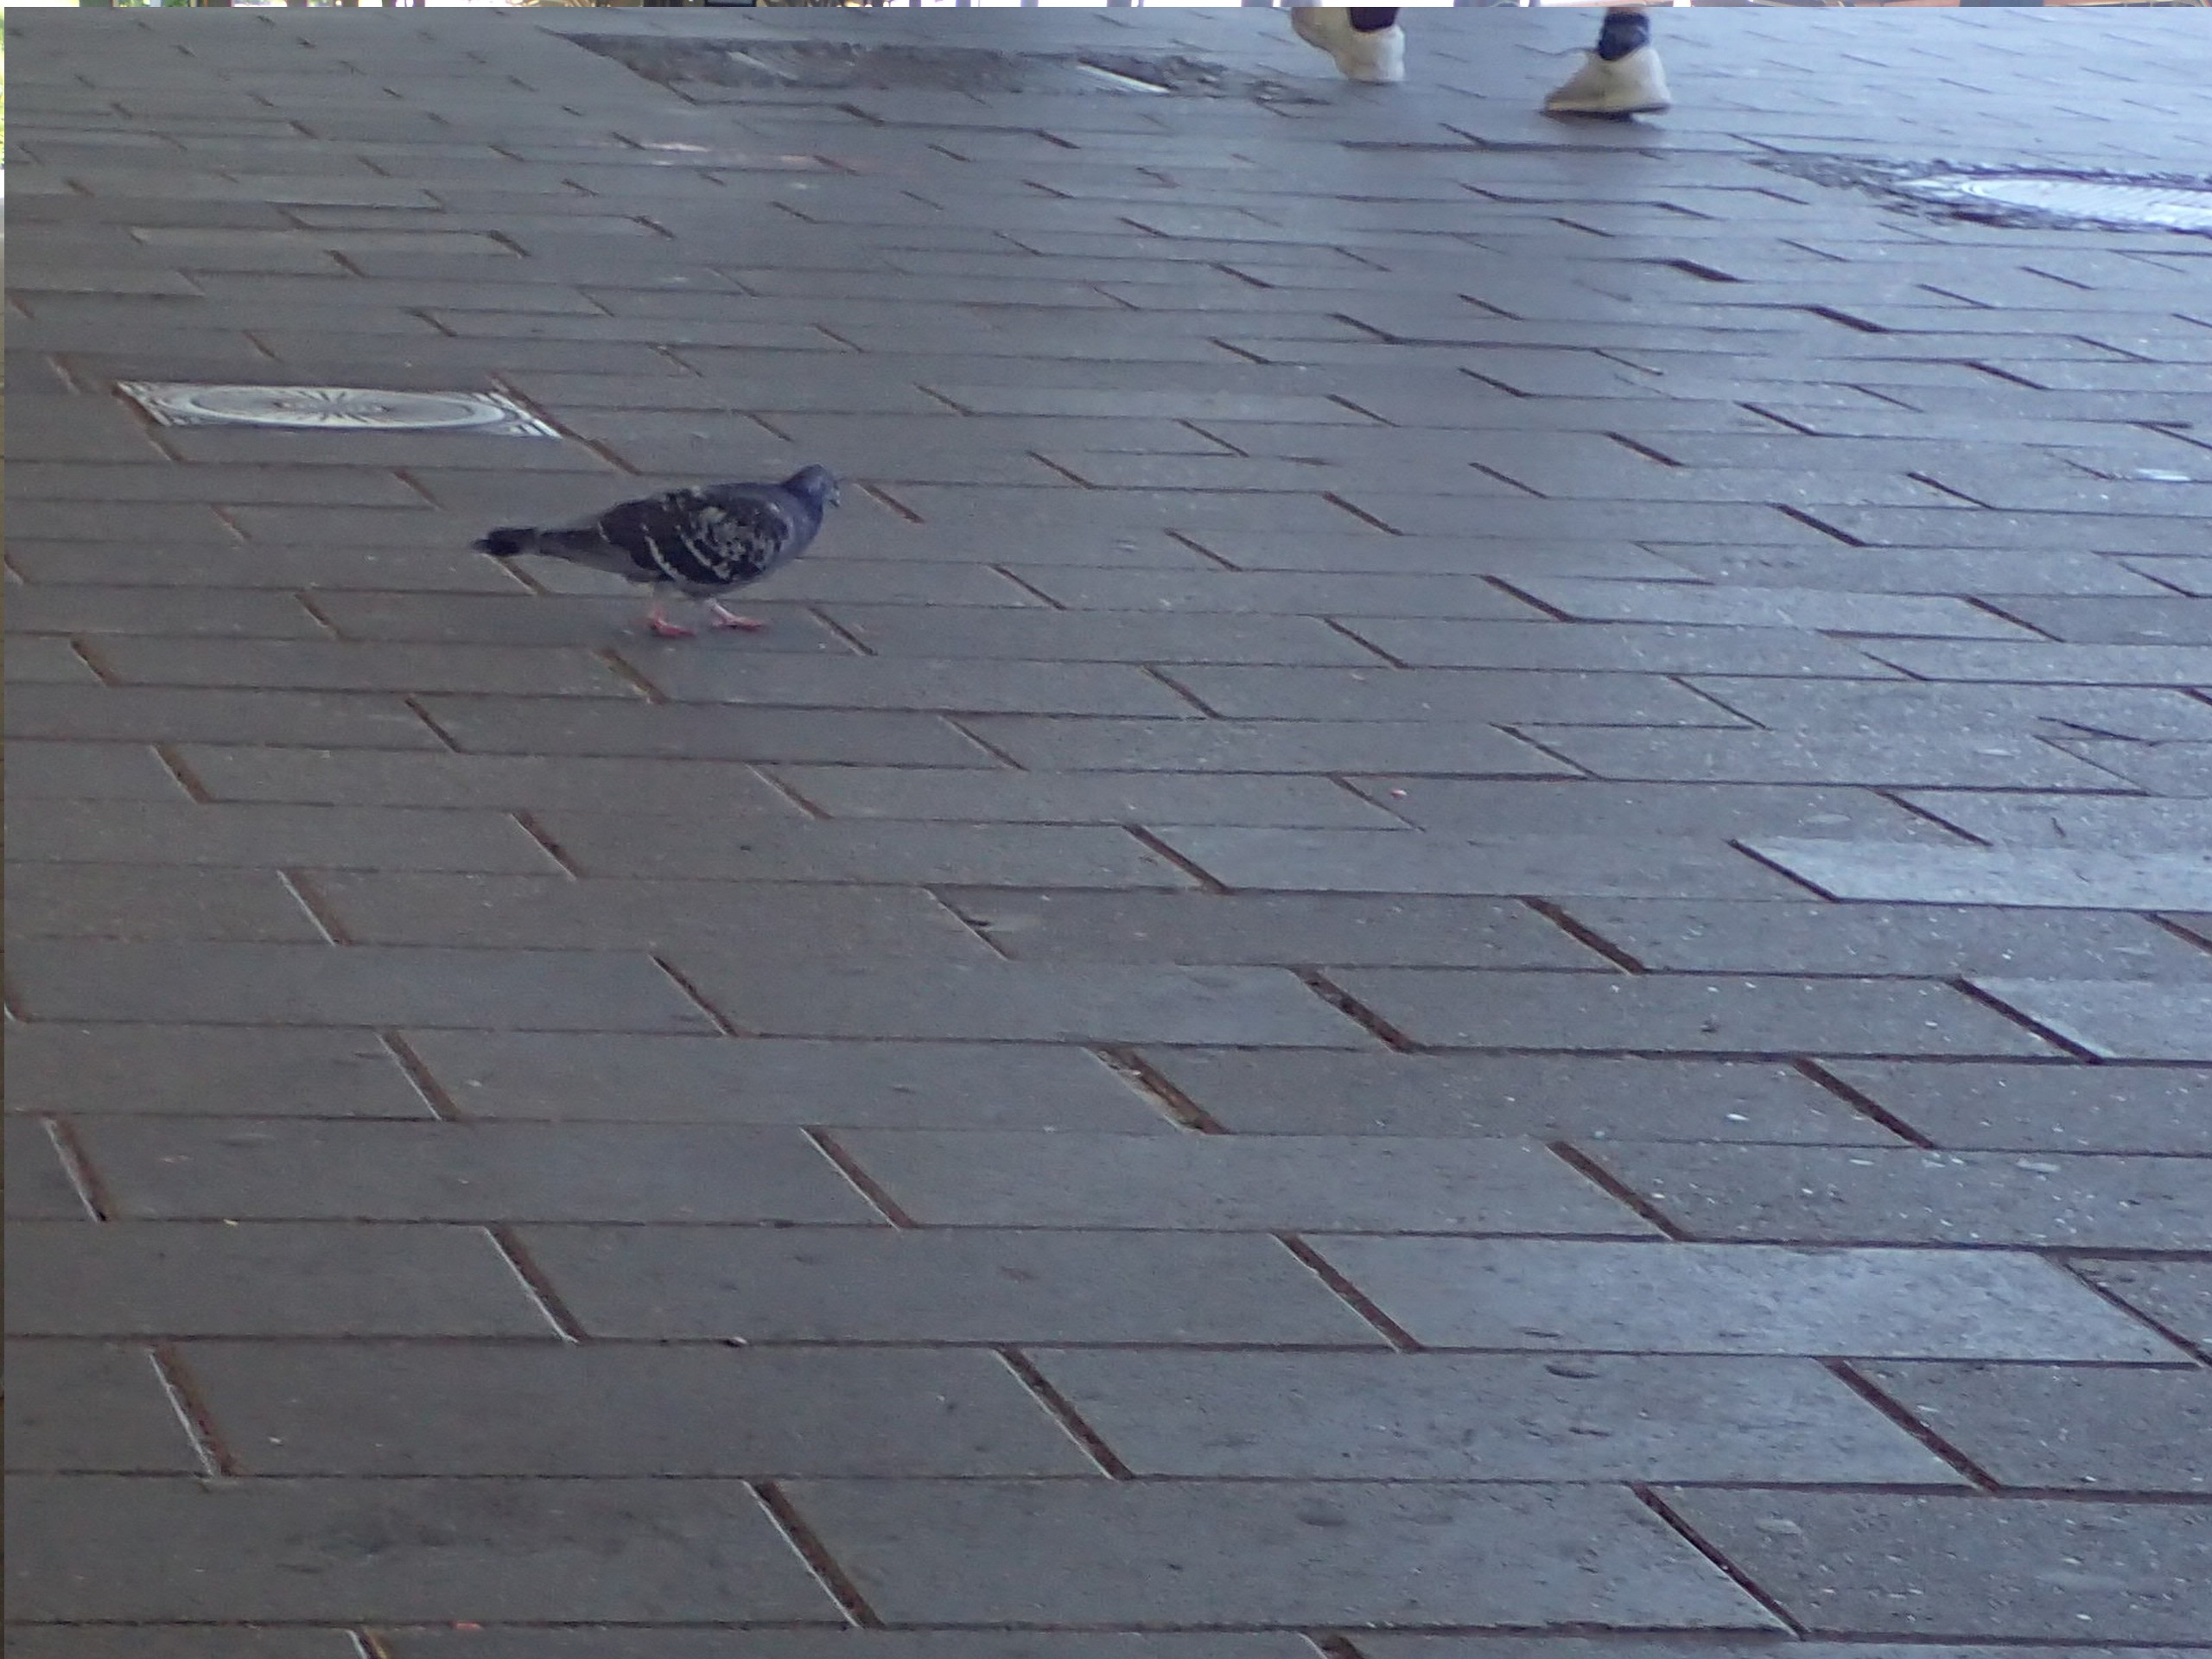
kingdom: Animalia
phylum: Chordata
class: Aves
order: Columbiformes
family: Columbidae
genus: Columba
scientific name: Columba livia
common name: Klippedue
